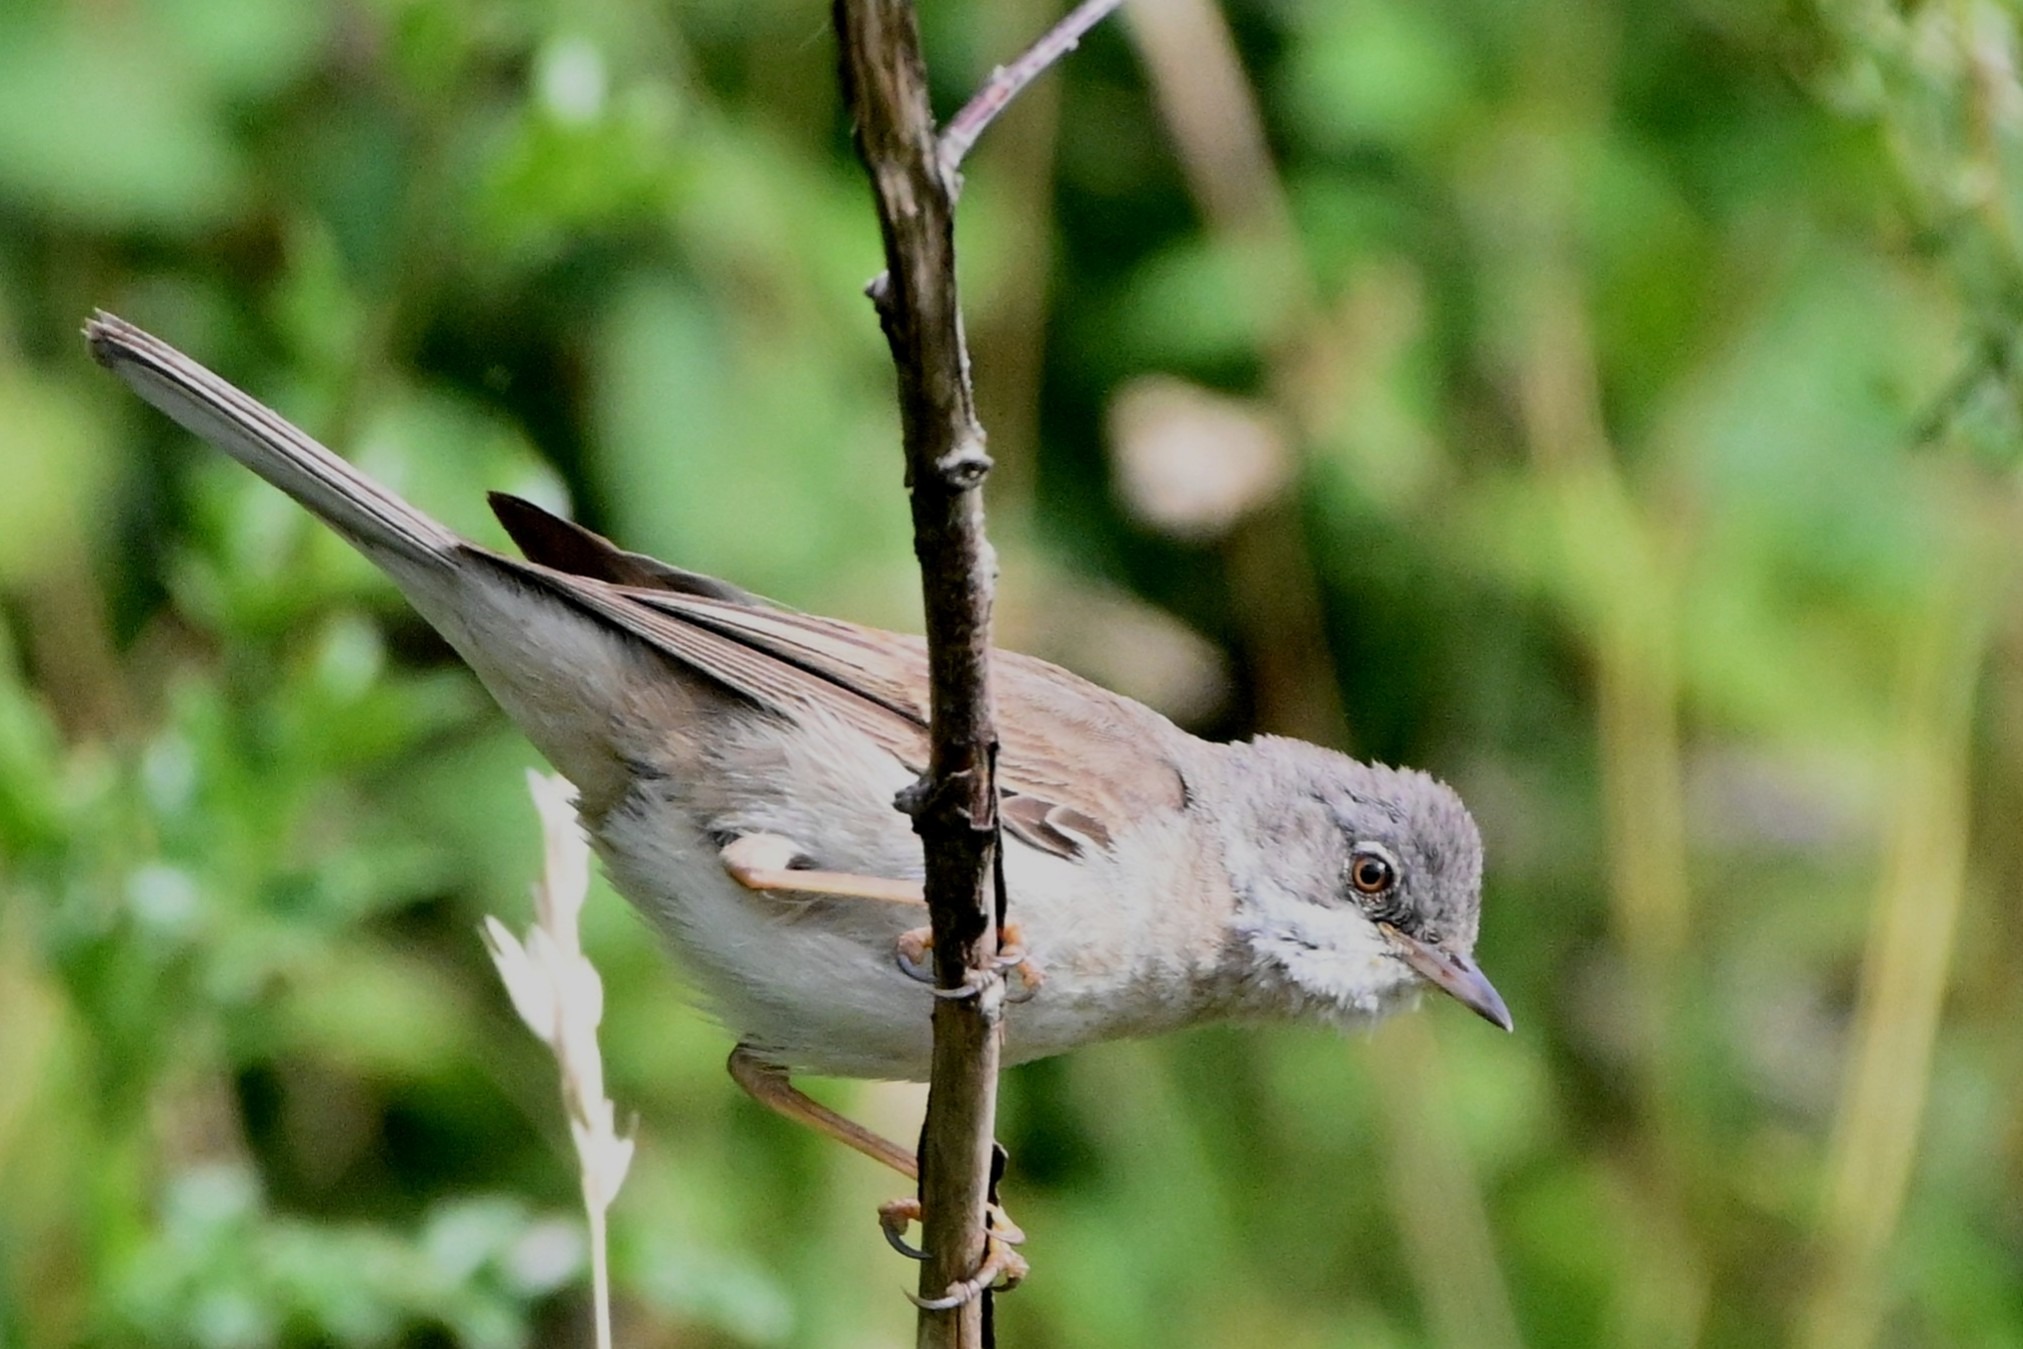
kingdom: Animalia
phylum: Chordata
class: Aves
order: Passeriformes
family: Sylviidae
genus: Sylvia
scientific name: Sylvia communis
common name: Tornsanger
